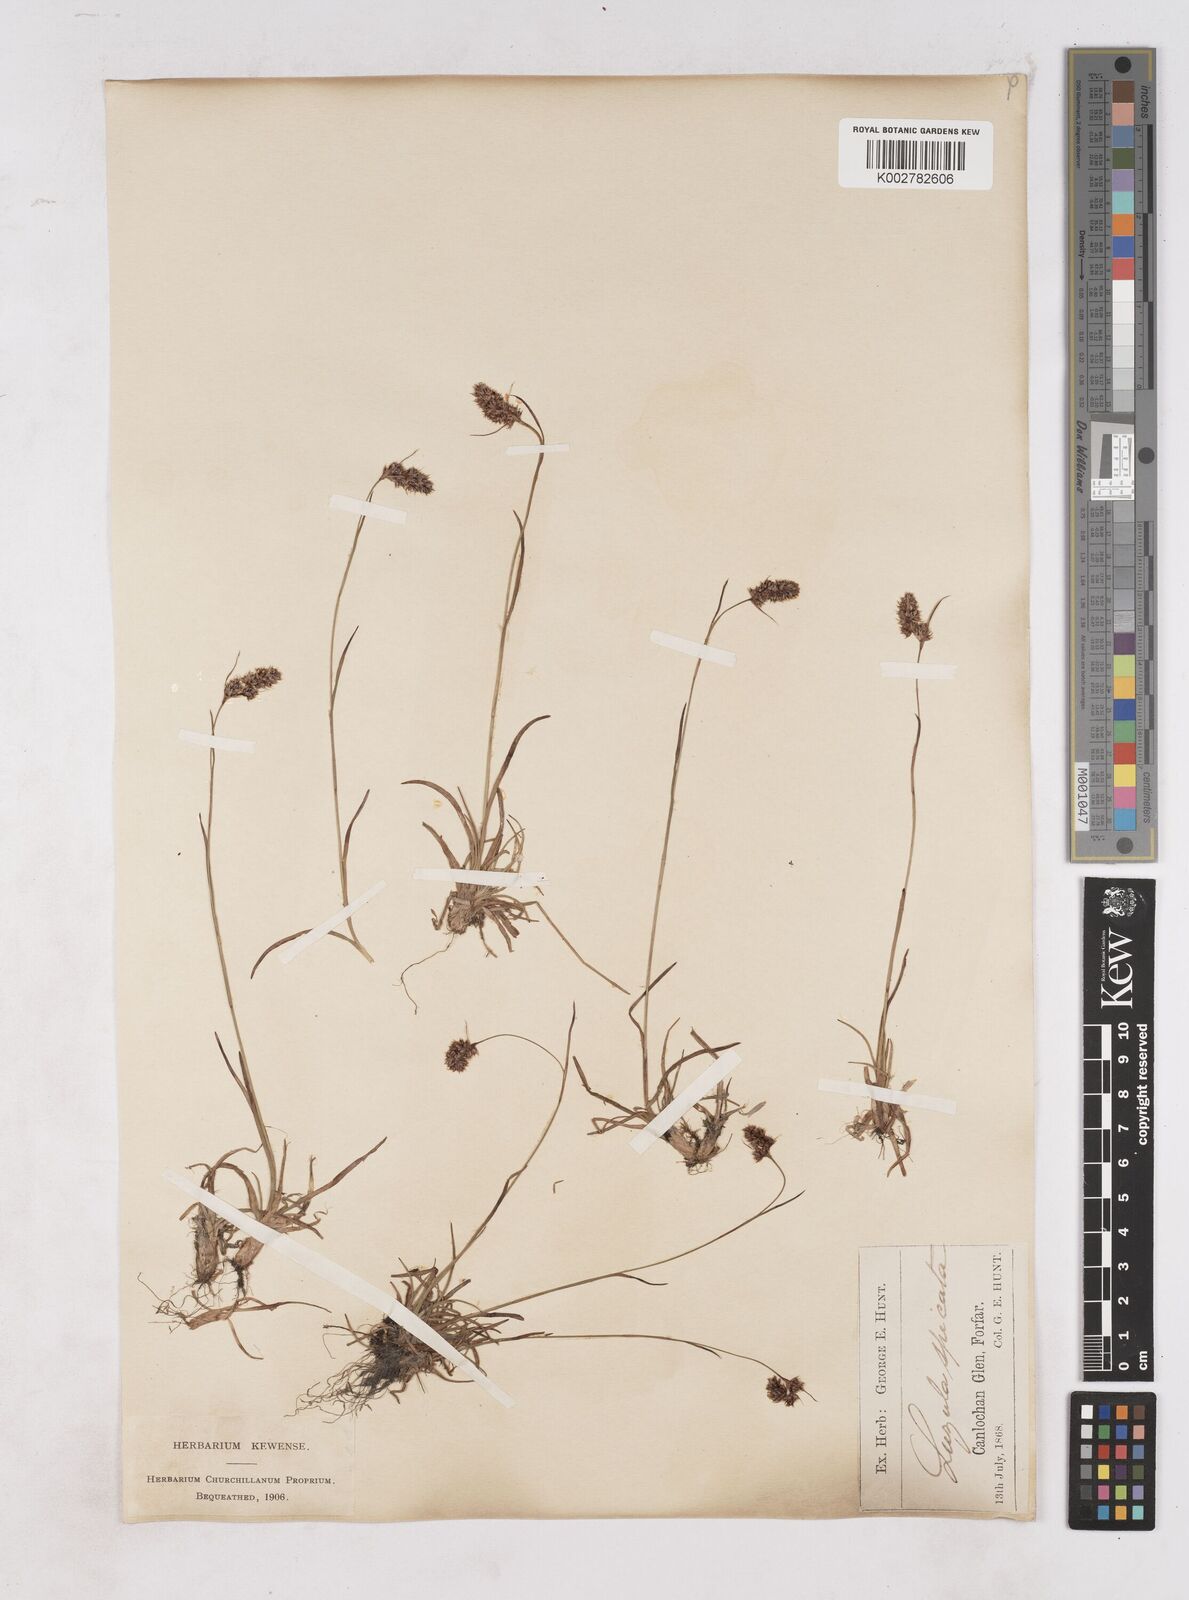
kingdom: Plantae
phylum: Tracheophyta
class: Liliopsida
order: Poales
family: Juncaceae
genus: Luzula
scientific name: Luzula spicata
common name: Spiked wood-rush
